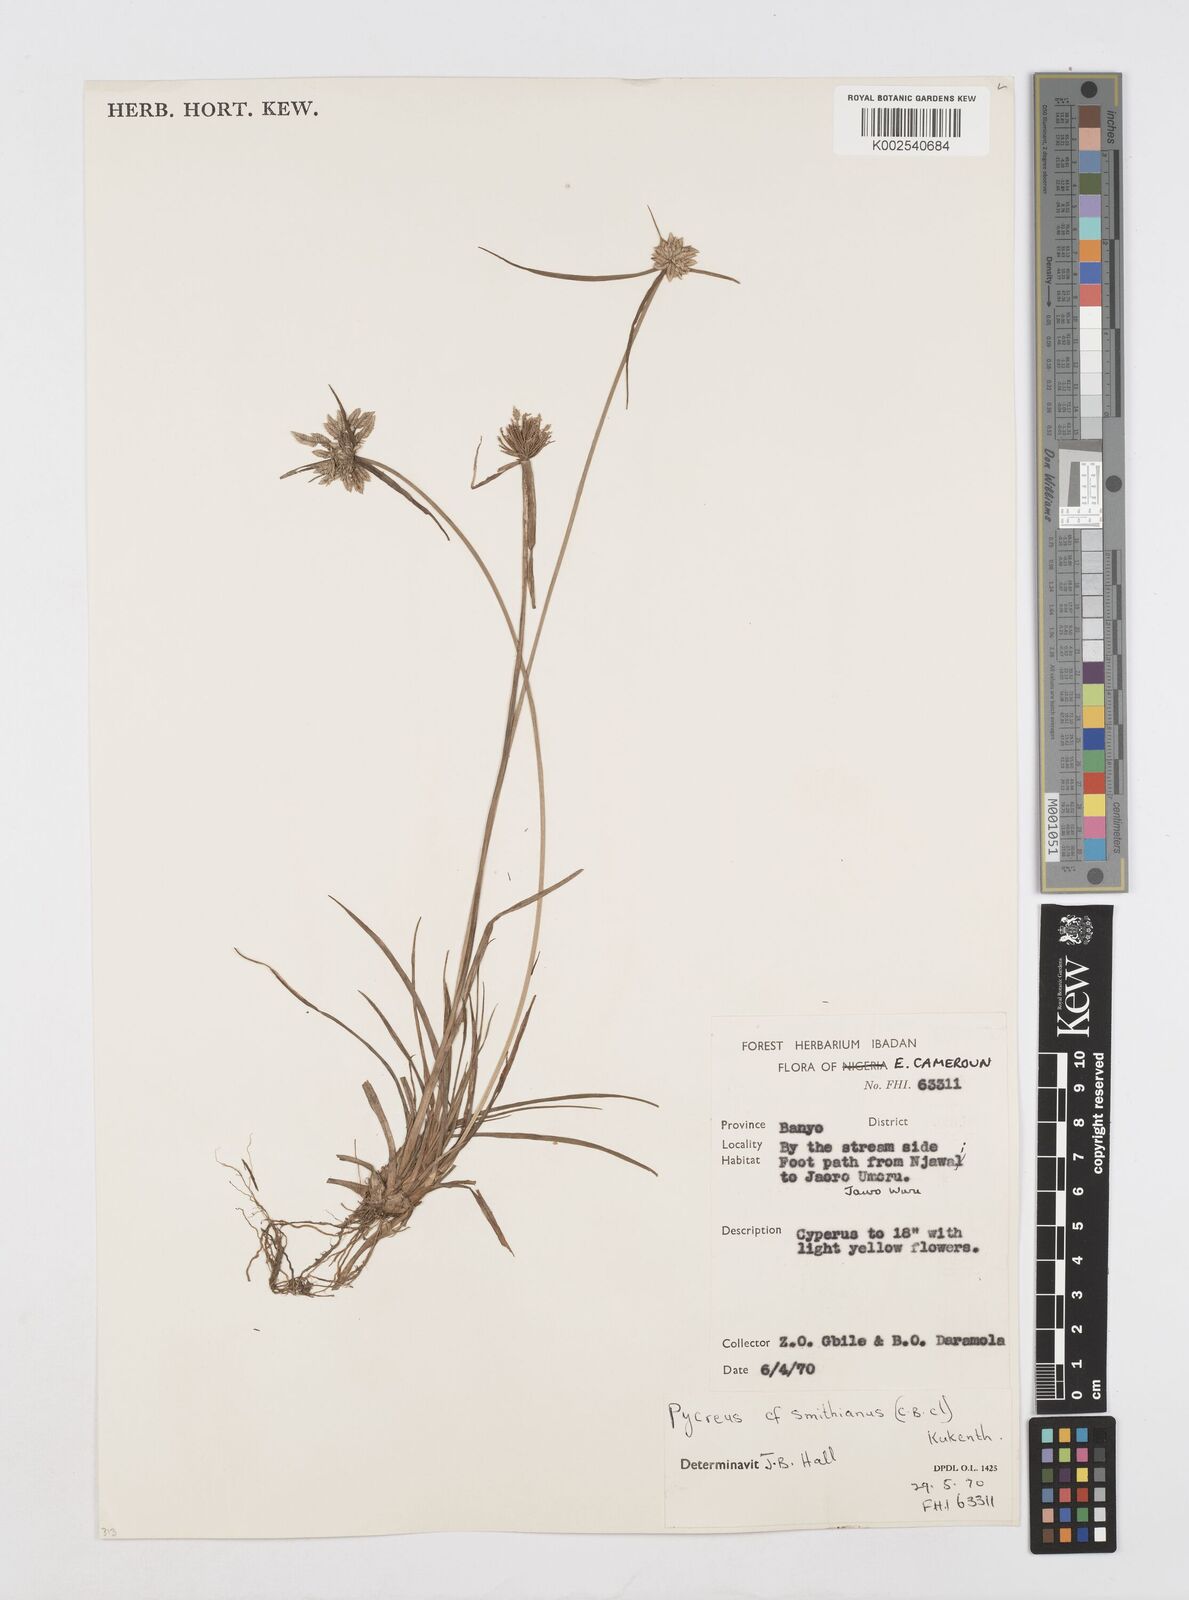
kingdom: Plantae
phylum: Tracheophyta
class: Liliopsida
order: Poales
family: Cyperaceae
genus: Cyperus
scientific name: Cyperus smithianus
